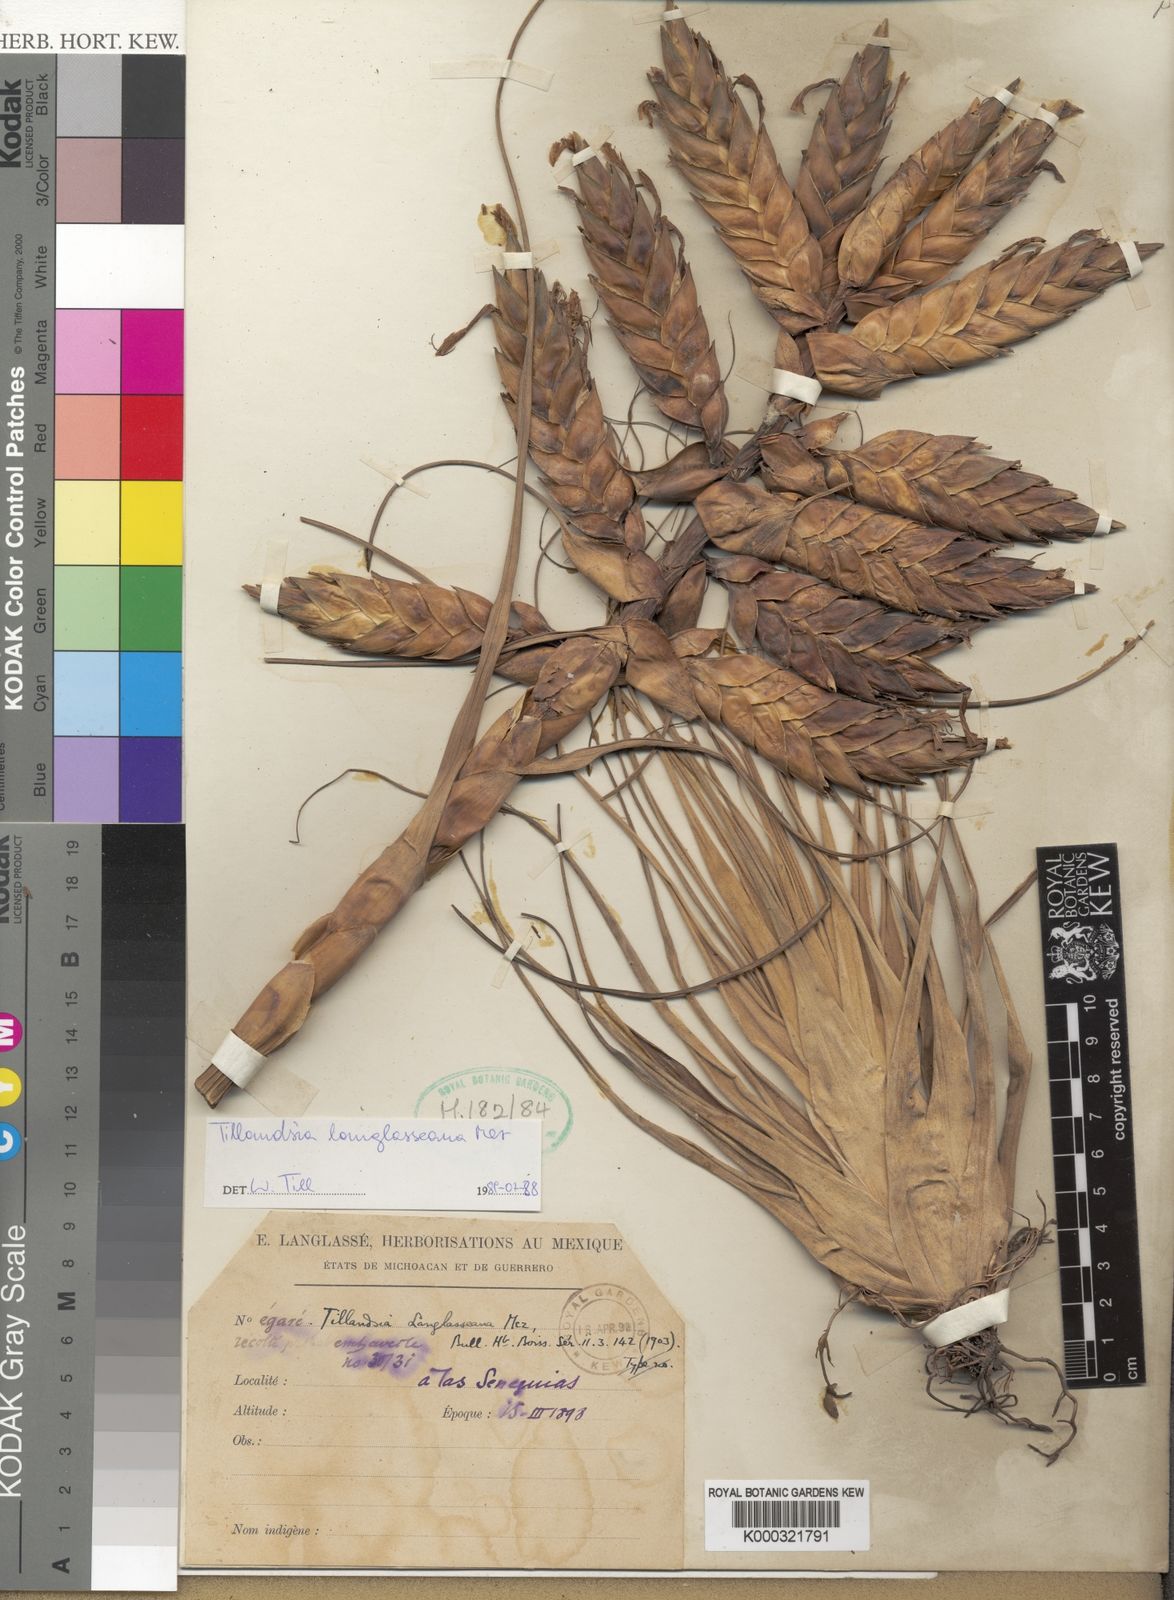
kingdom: Plantae
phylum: Tracheophyta
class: Liliopsida
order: Poales
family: Bromeliaceae
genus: Tillandsia
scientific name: Tillandsia langlasseana
